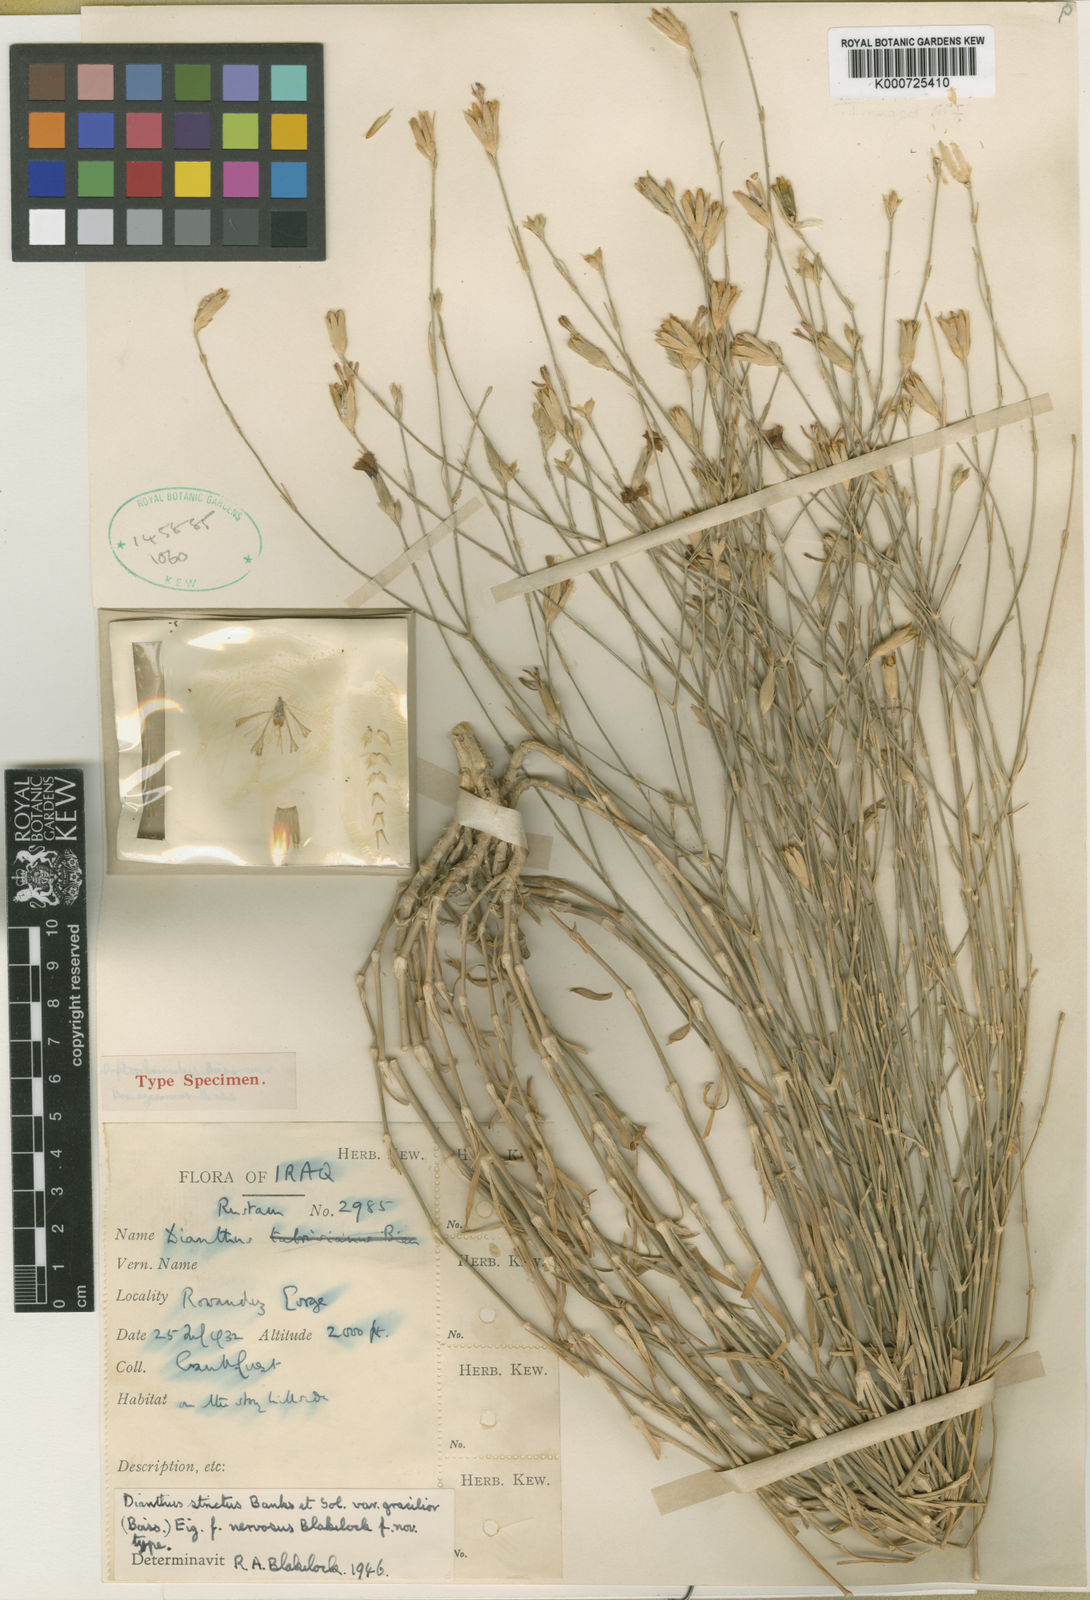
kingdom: Plantae
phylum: Tracheophyta
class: Magnoliopsida
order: Caryophyllales
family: Caryophyllaceae
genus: Dianthus
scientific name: Dianthus strictus
